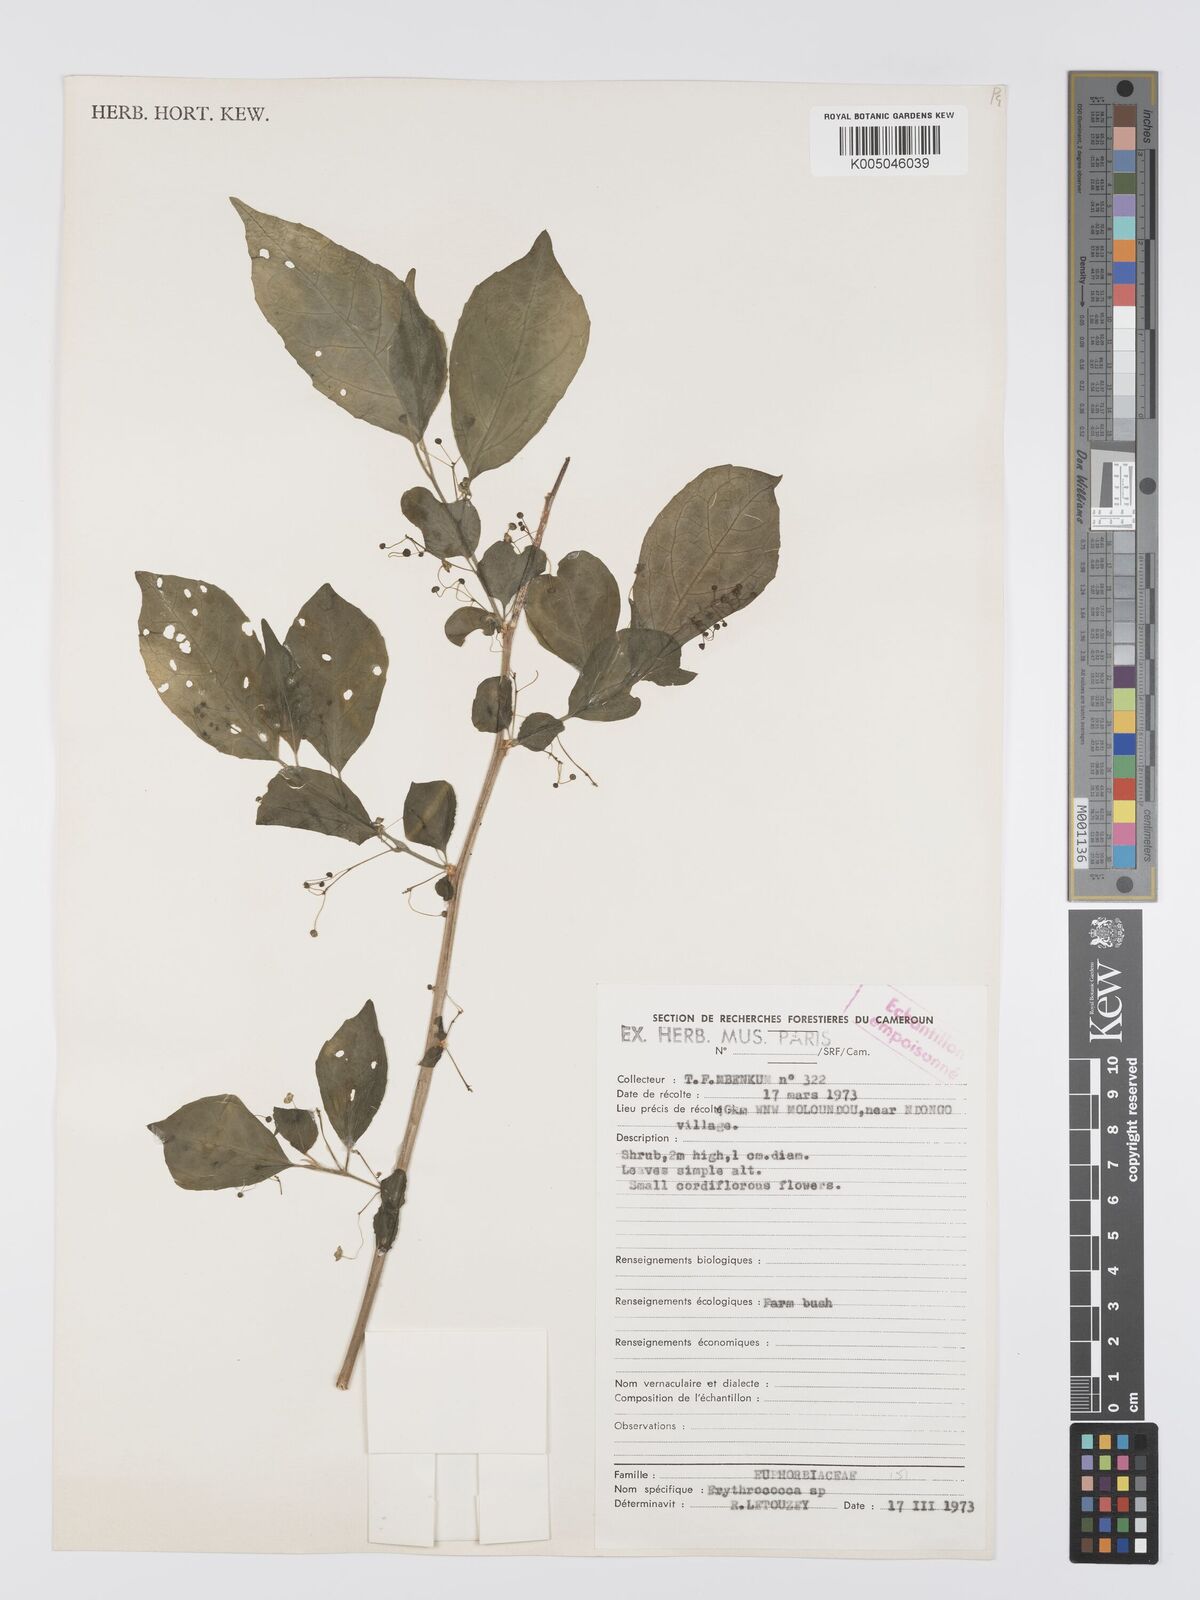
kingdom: Plantae
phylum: Tracheophyta
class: Magnoliopsida
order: Malpighiales
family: Euphorbiaceae
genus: Erythrococca
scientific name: Erythrococca
